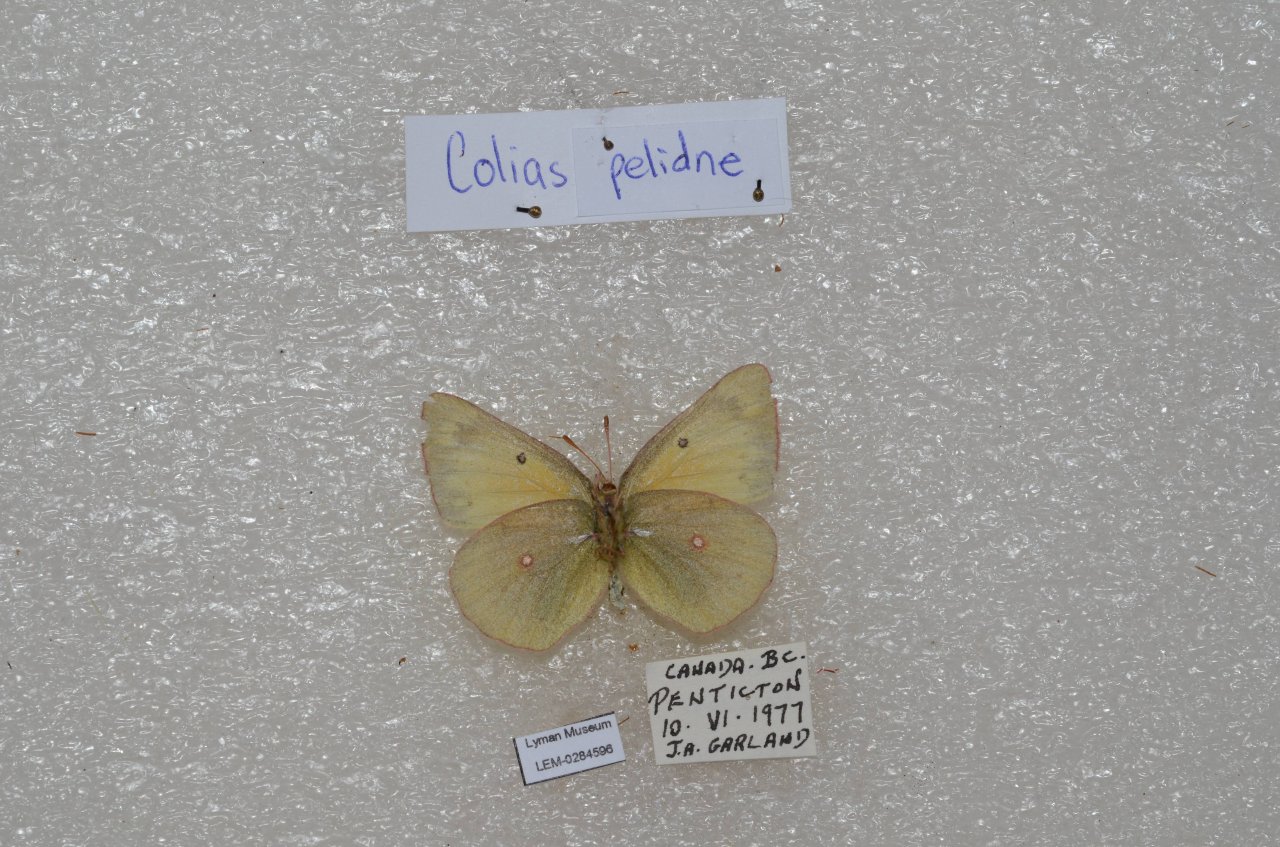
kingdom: Animalia
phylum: Arthropoda
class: Insecta
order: Lepidoptera
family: Pieridae
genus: Colias
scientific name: Colias pelidne
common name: Pelidne Sulphur
